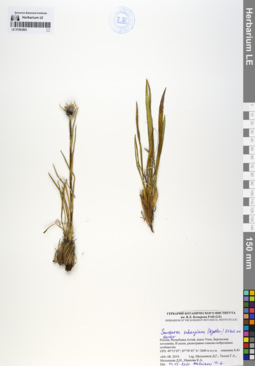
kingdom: Plantae
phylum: Tracheophyta
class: Magnoliopsida
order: Asterales
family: Asteraceae
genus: Saussurea
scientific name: Saussurea schanginiana
